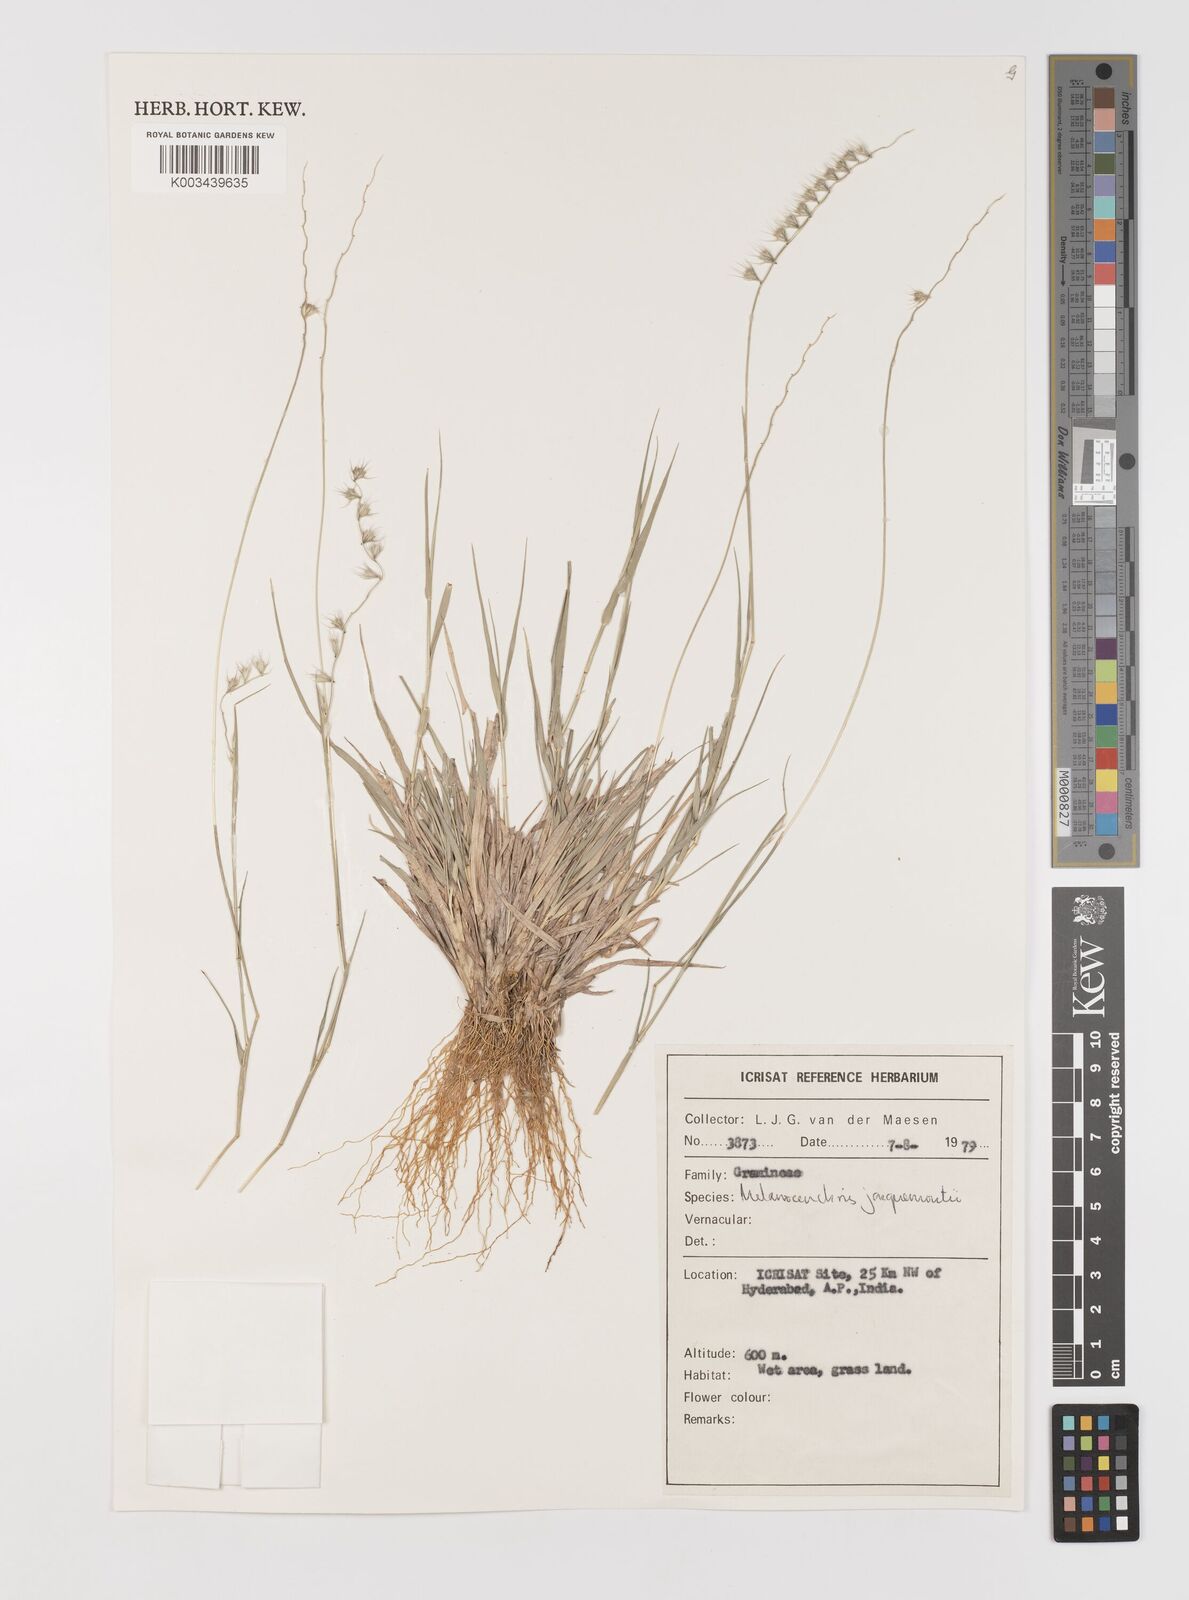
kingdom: Plantae
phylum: Tracheophyta
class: Liliopsida
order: Poales
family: Poaceae
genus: Melanocenchris
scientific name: Melanocenchris jacquemontii
